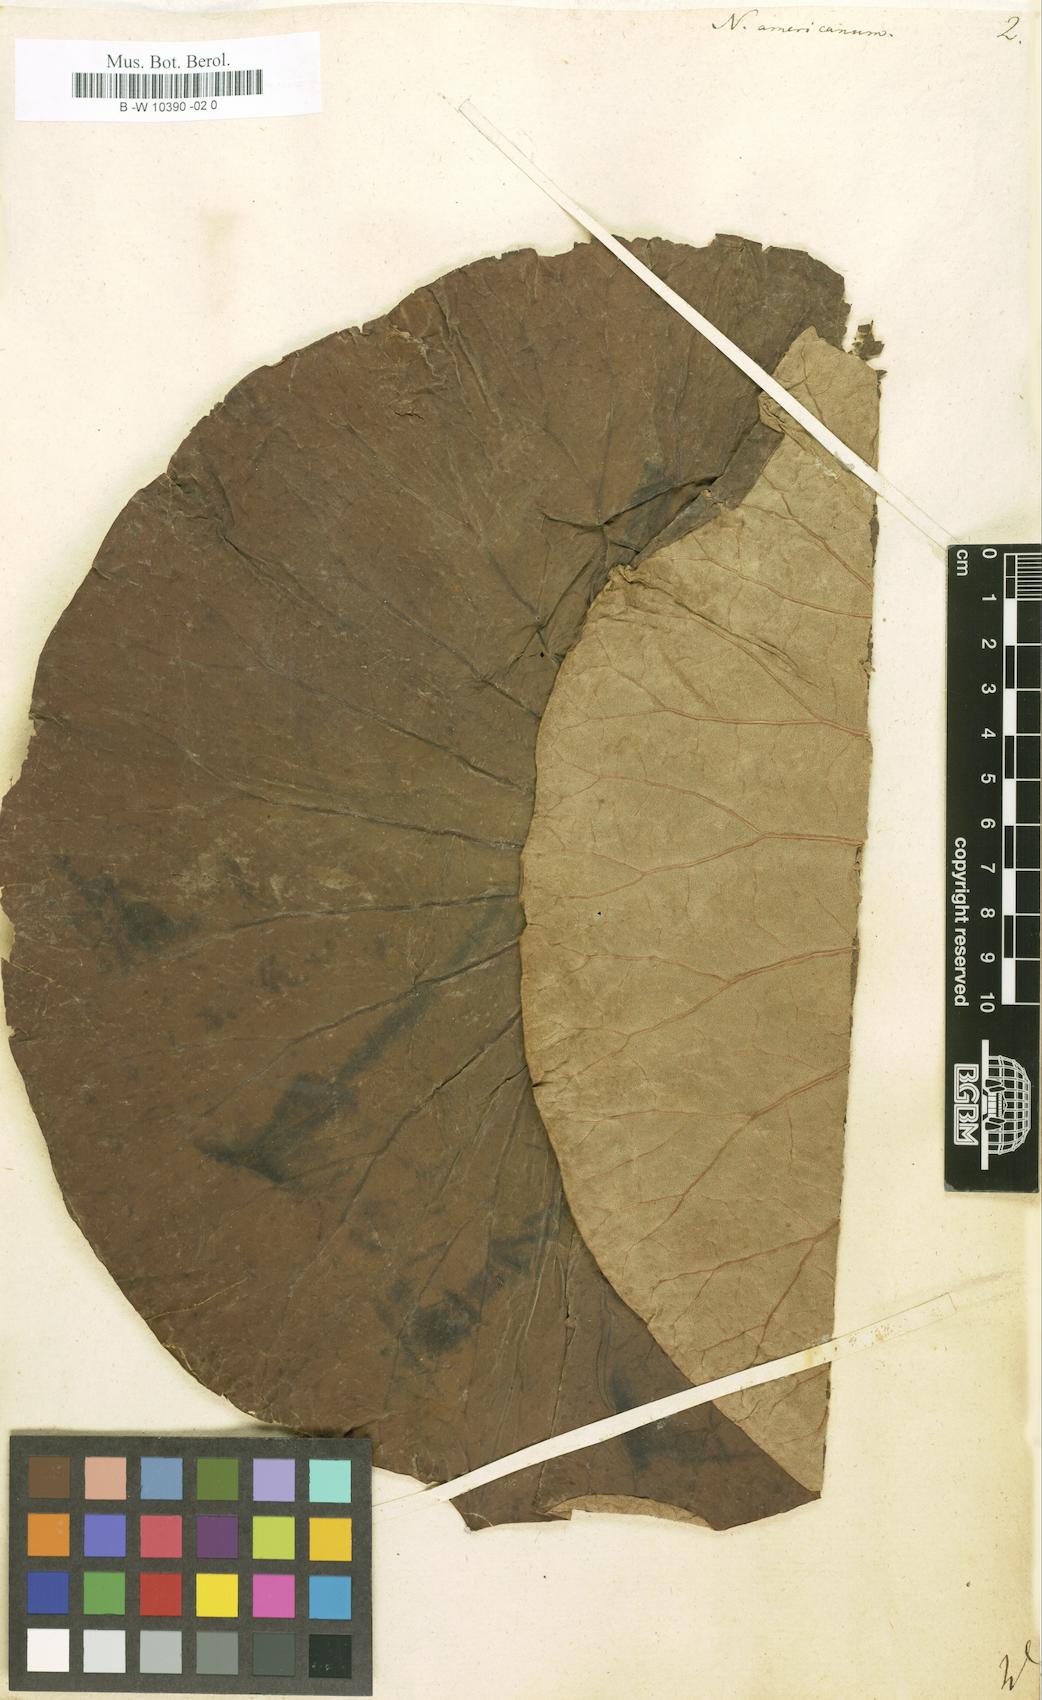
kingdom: Plantae
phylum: Tracheophyta
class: Magnoliopsida
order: Proteales
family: Nelumbonaceae
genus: Nelumbo
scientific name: Nelumbo
